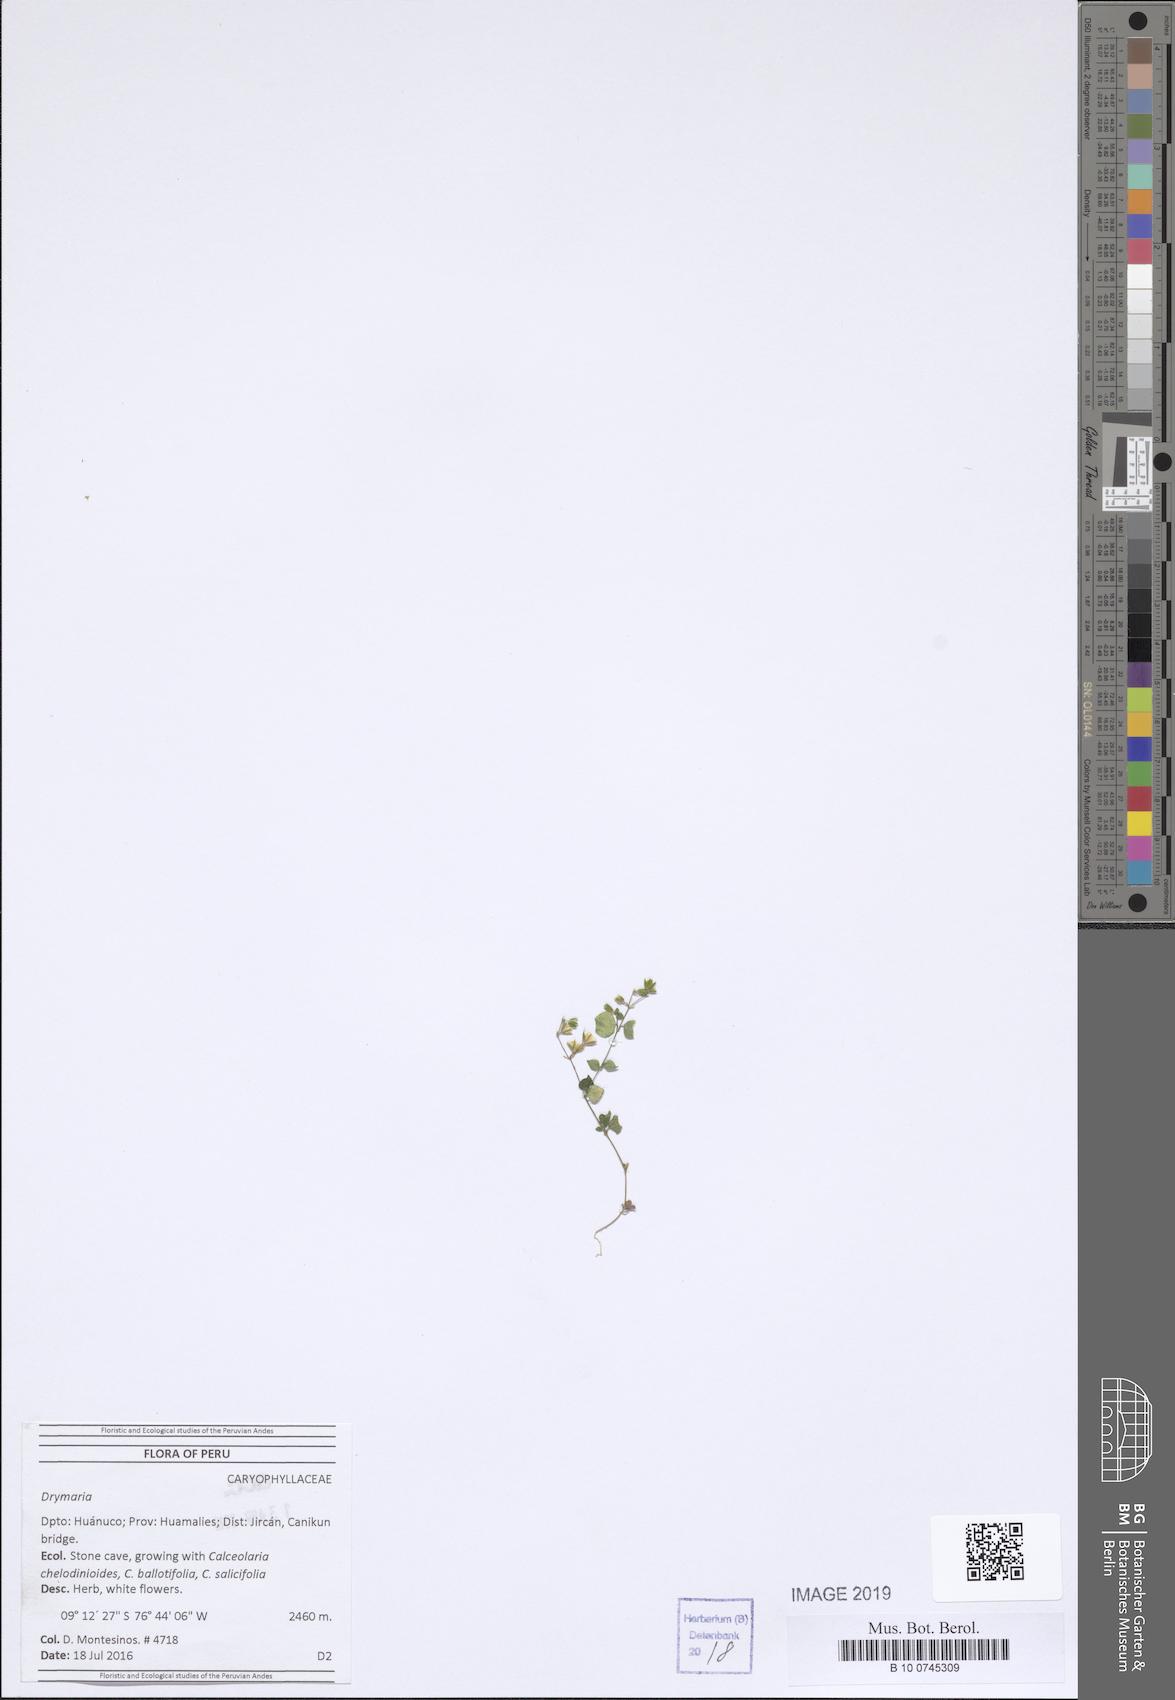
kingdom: Plantae
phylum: Tracheophyta
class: Magnoliopsida
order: Caryophyllales
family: Caryophyllaceae
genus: Drymaria
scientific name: Drymaria
